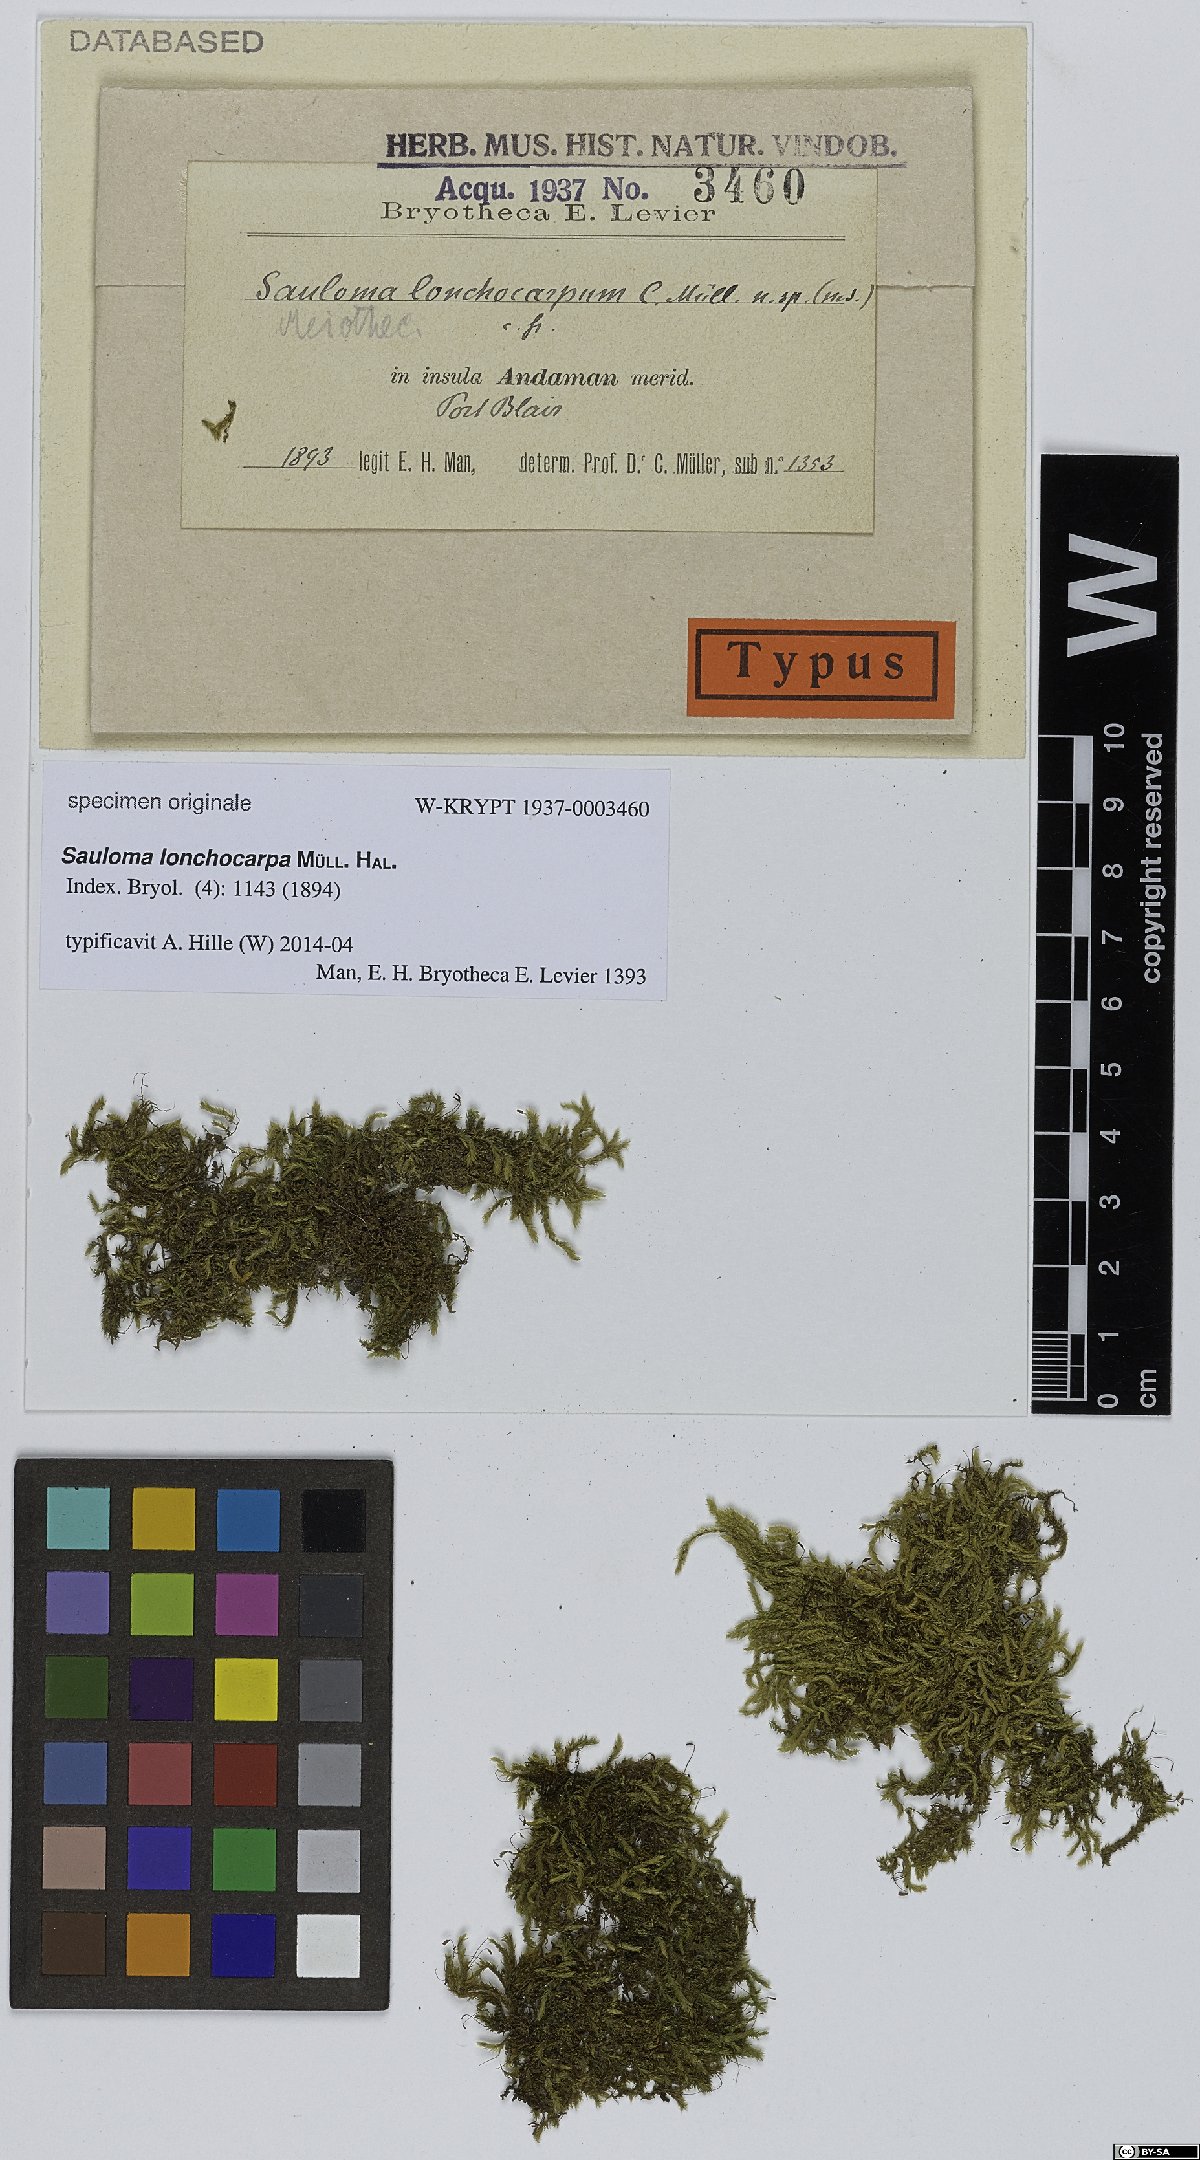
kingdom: Plantae
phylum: Bryophyta
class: Bryopsida
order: Hookeriales
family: Saulomataceae
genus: Sauloma
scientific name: Sauloma lonchocarpa
